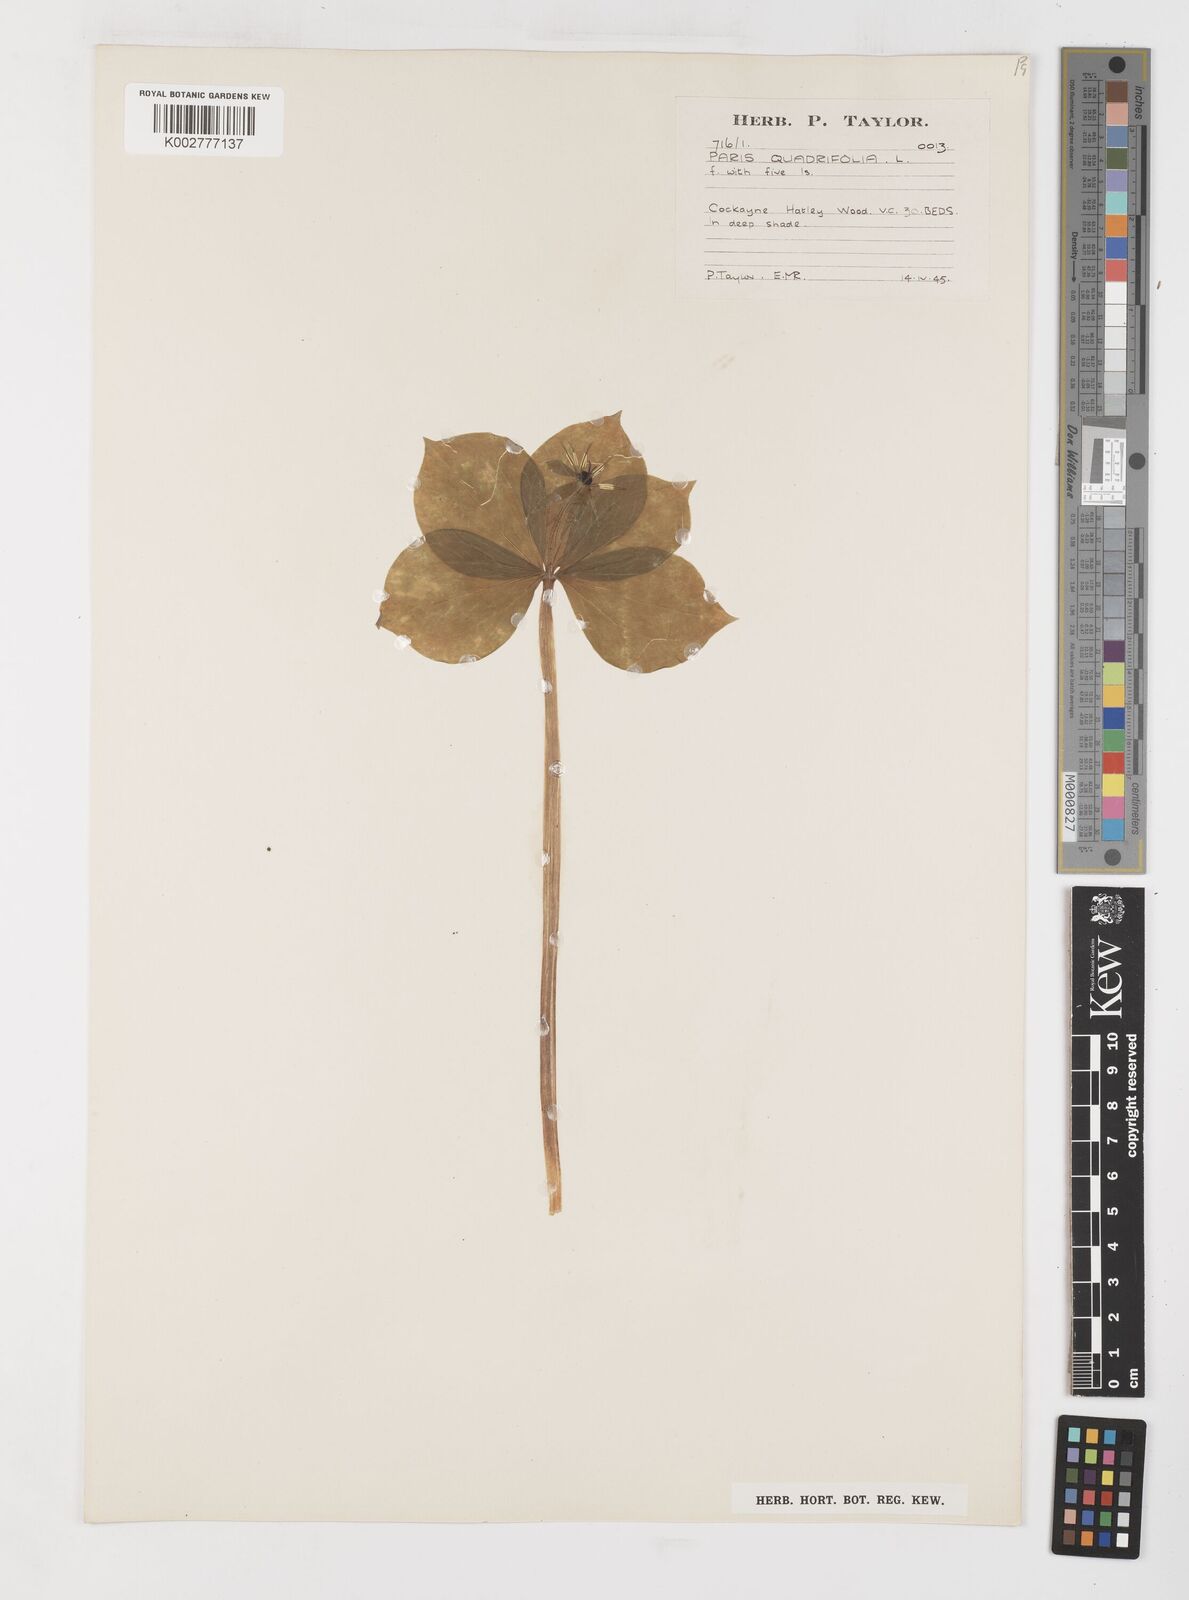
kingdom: Plantae
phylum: Tracheophyta
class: Liliopsida
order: Liliales
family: Melanthiaceae
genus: Paris
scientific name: Paris quadrifolia
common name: Herb-paris
